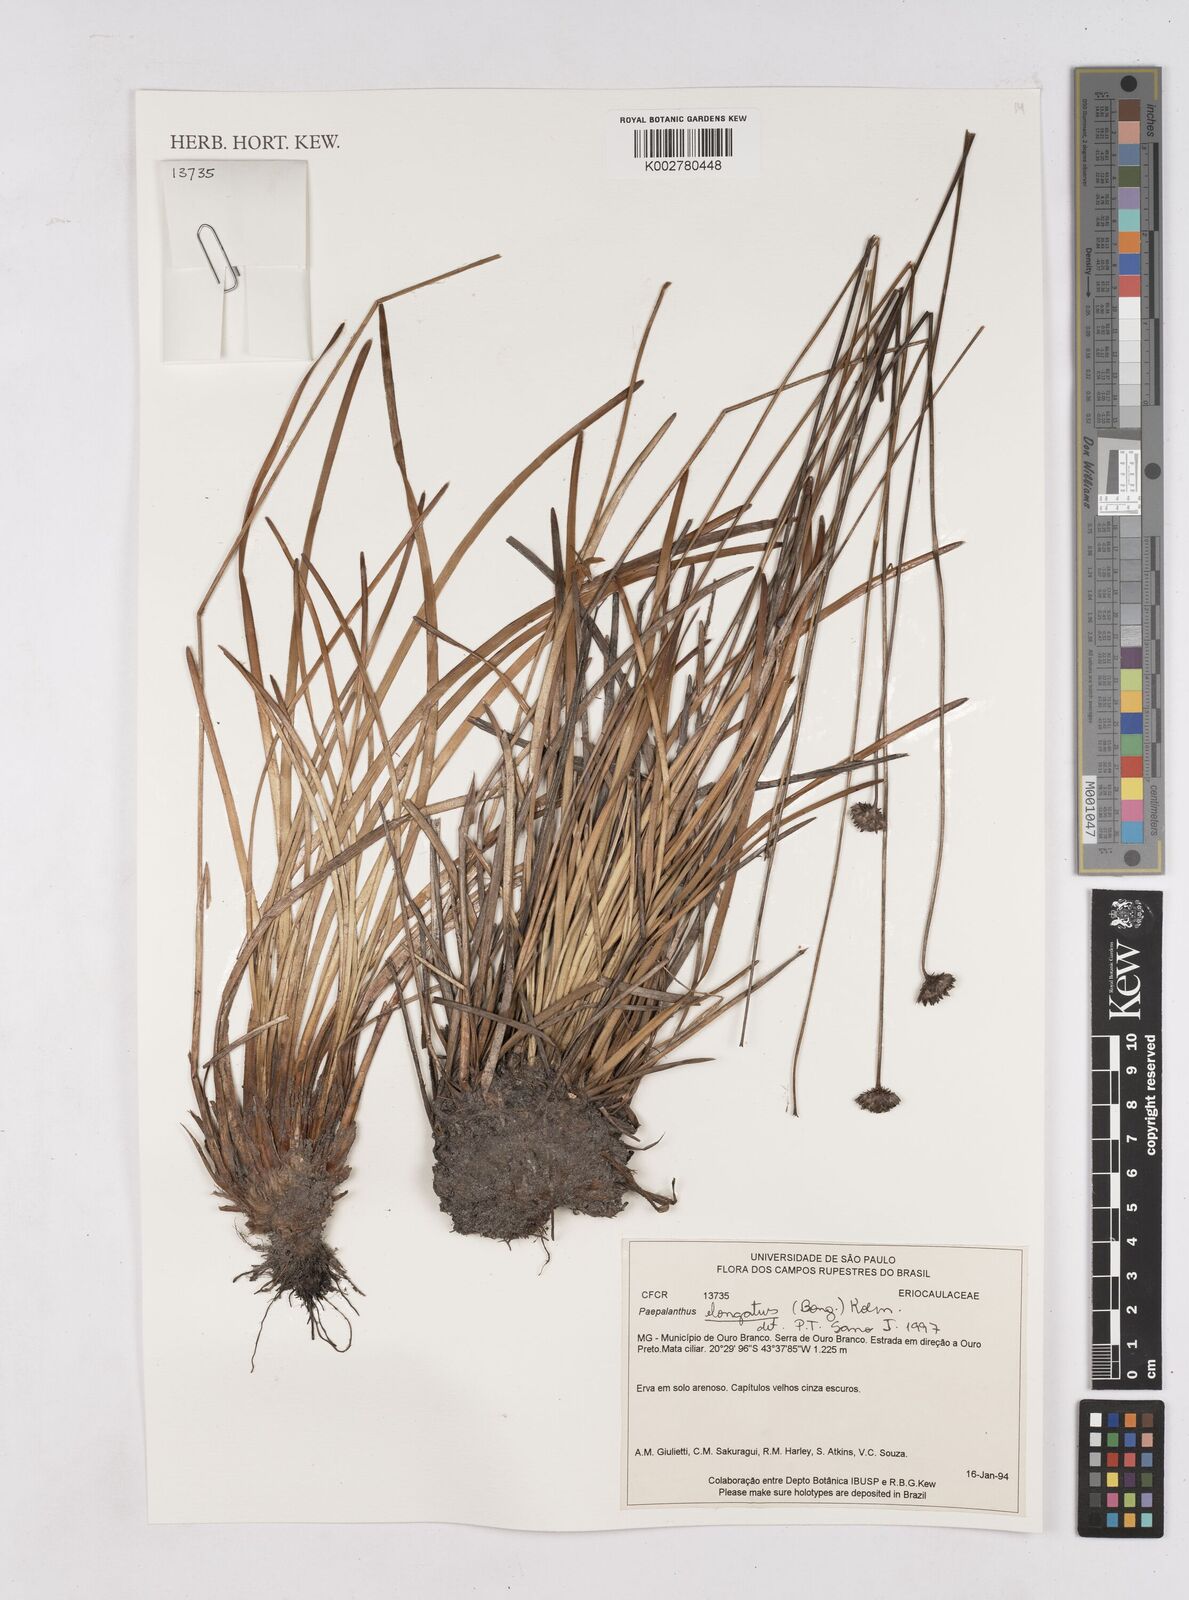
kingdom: Plantae
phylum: Tracheophyta
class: Liliopsida
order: Poales
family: Eriocaulaceae
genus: Paepalanthus
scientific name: Paepalanthus elongatus
